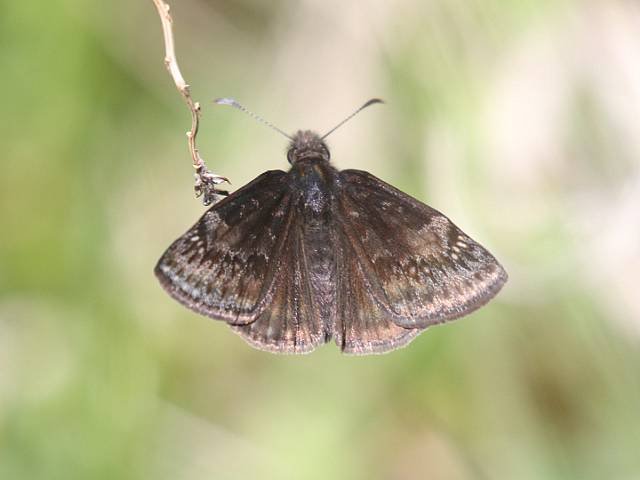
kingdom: Animalia
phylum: Arthropoda
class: Insecta
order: Lepidoptera
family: Hesperiidae
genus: Gesta
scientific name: Gesta
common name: Wild Indigo Duskywing
